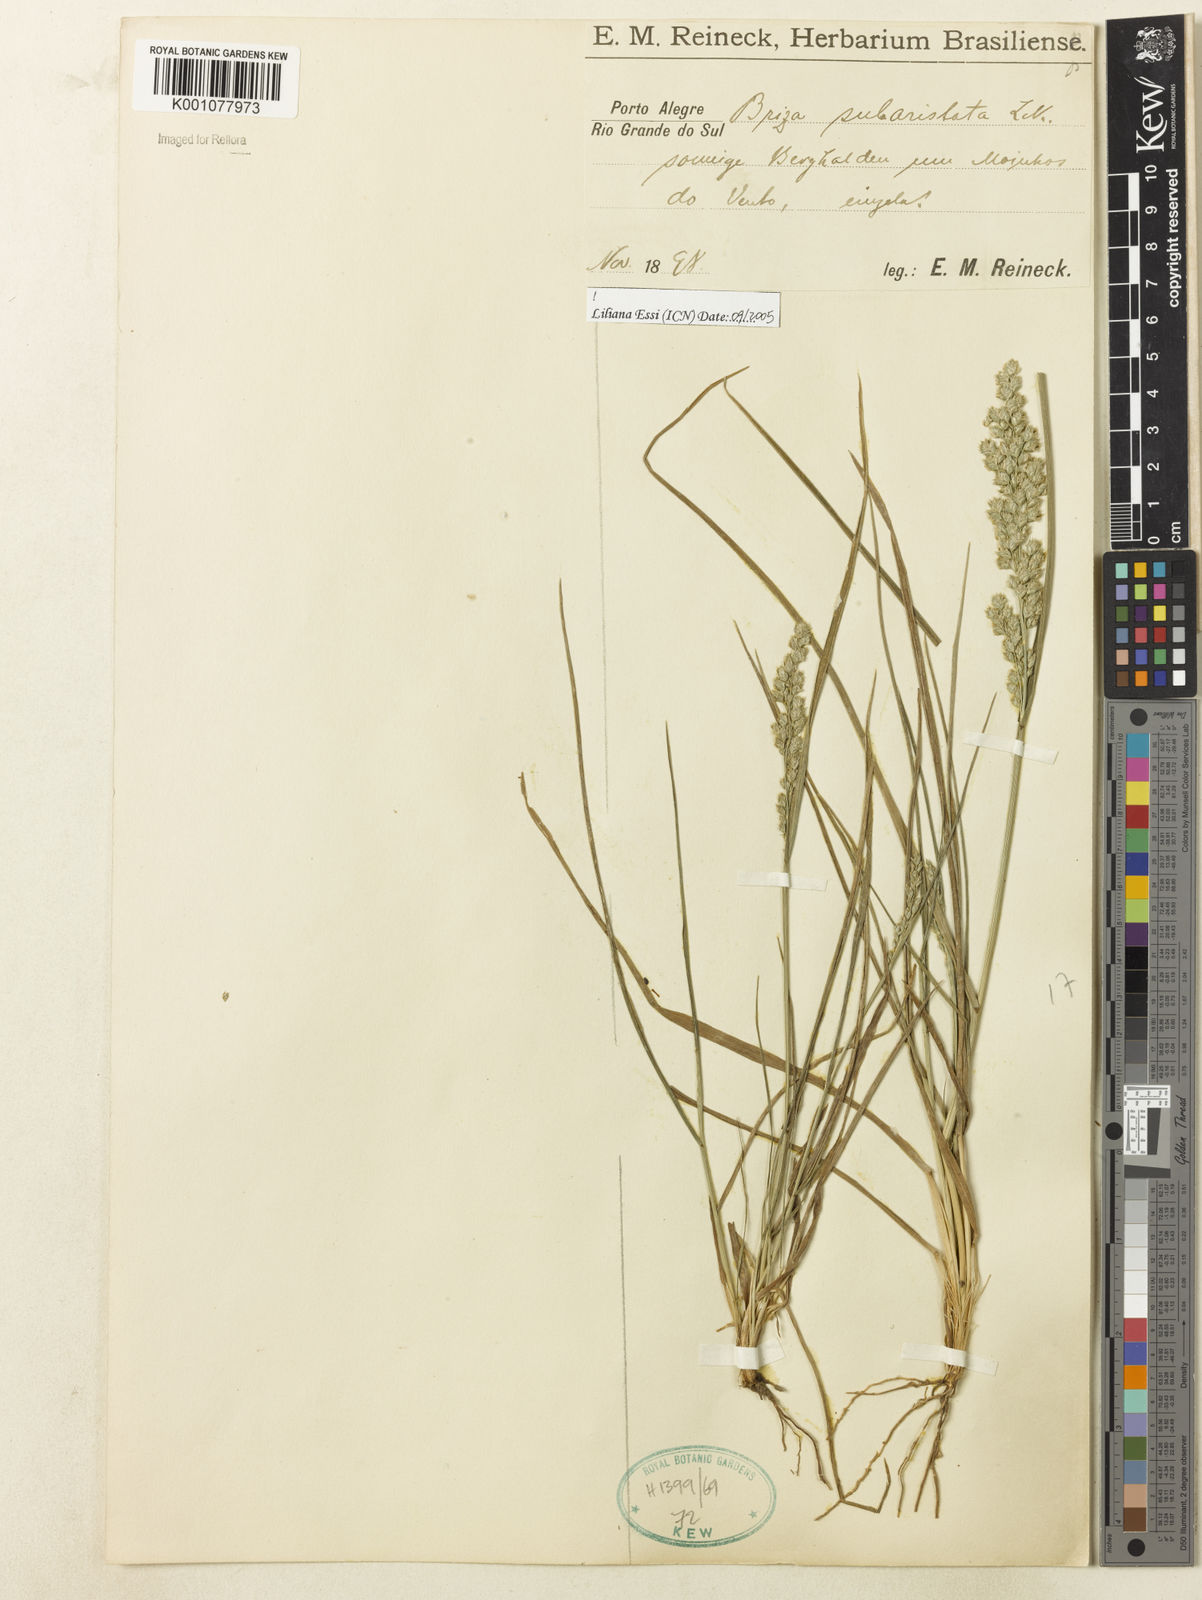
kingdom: Plantae
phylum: Tracheophyta
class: Liliopsida
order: Poales
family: Poaceae
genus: Briza
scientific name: Briza
